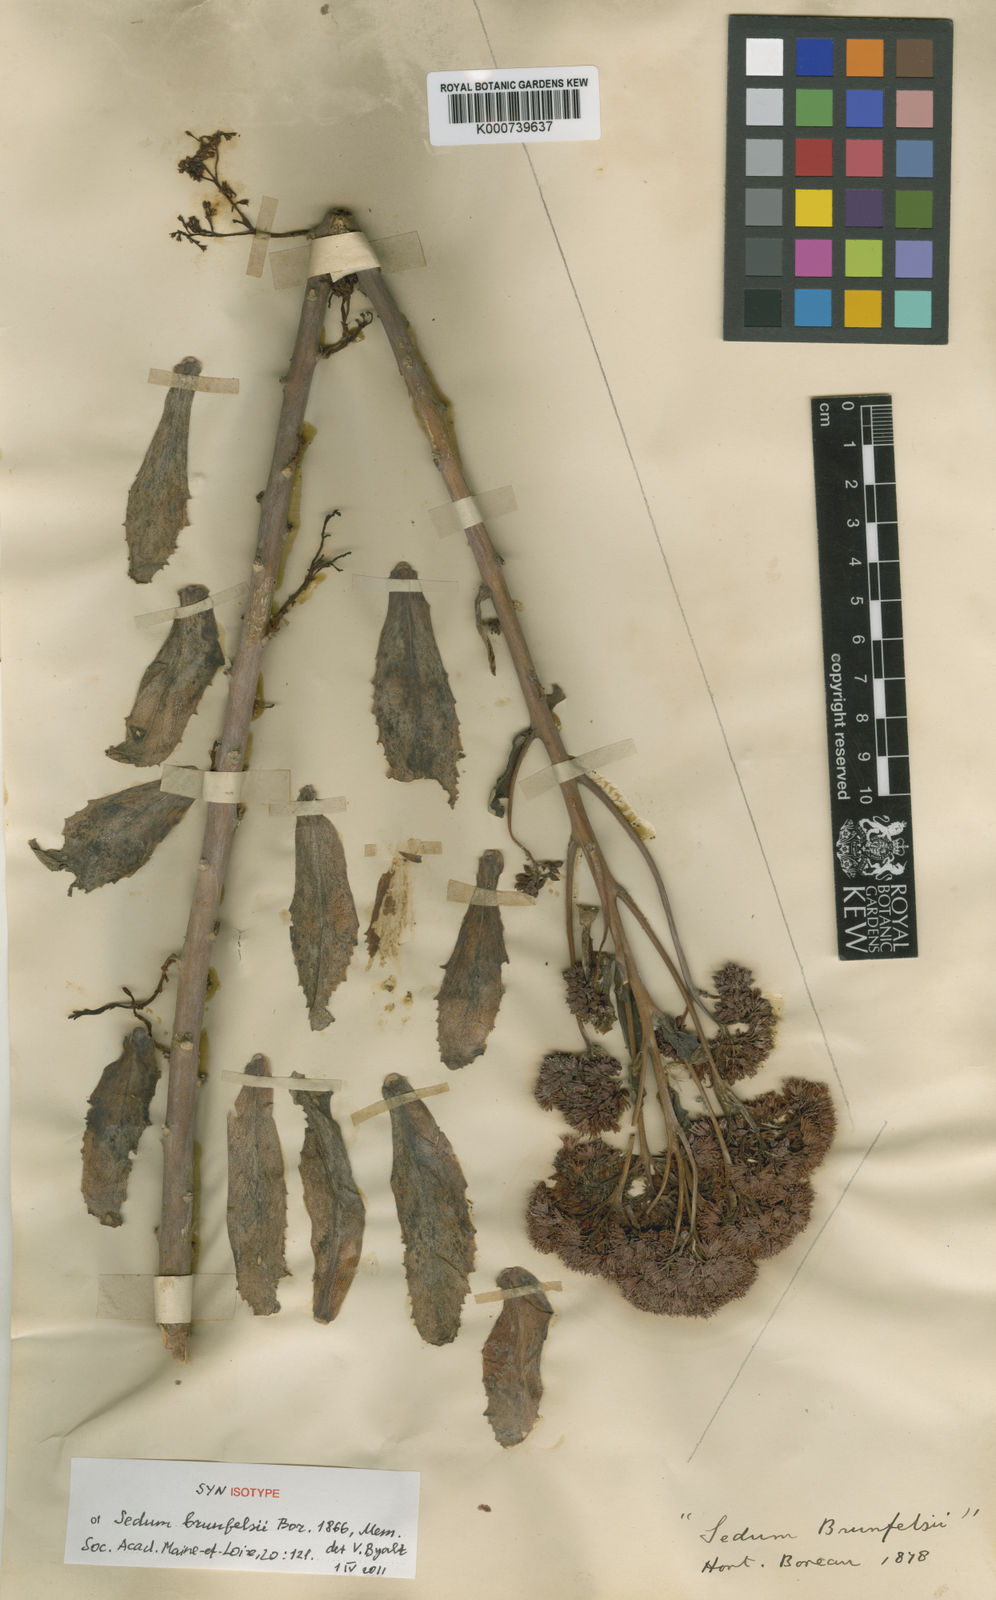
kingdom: Plantae
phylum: Tracheophyta
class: Magnoliopsida
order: Saxifragales
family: Crassulaceae
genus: Hylotelephium
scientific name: Hylotelephium telephium
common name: Live-forever
